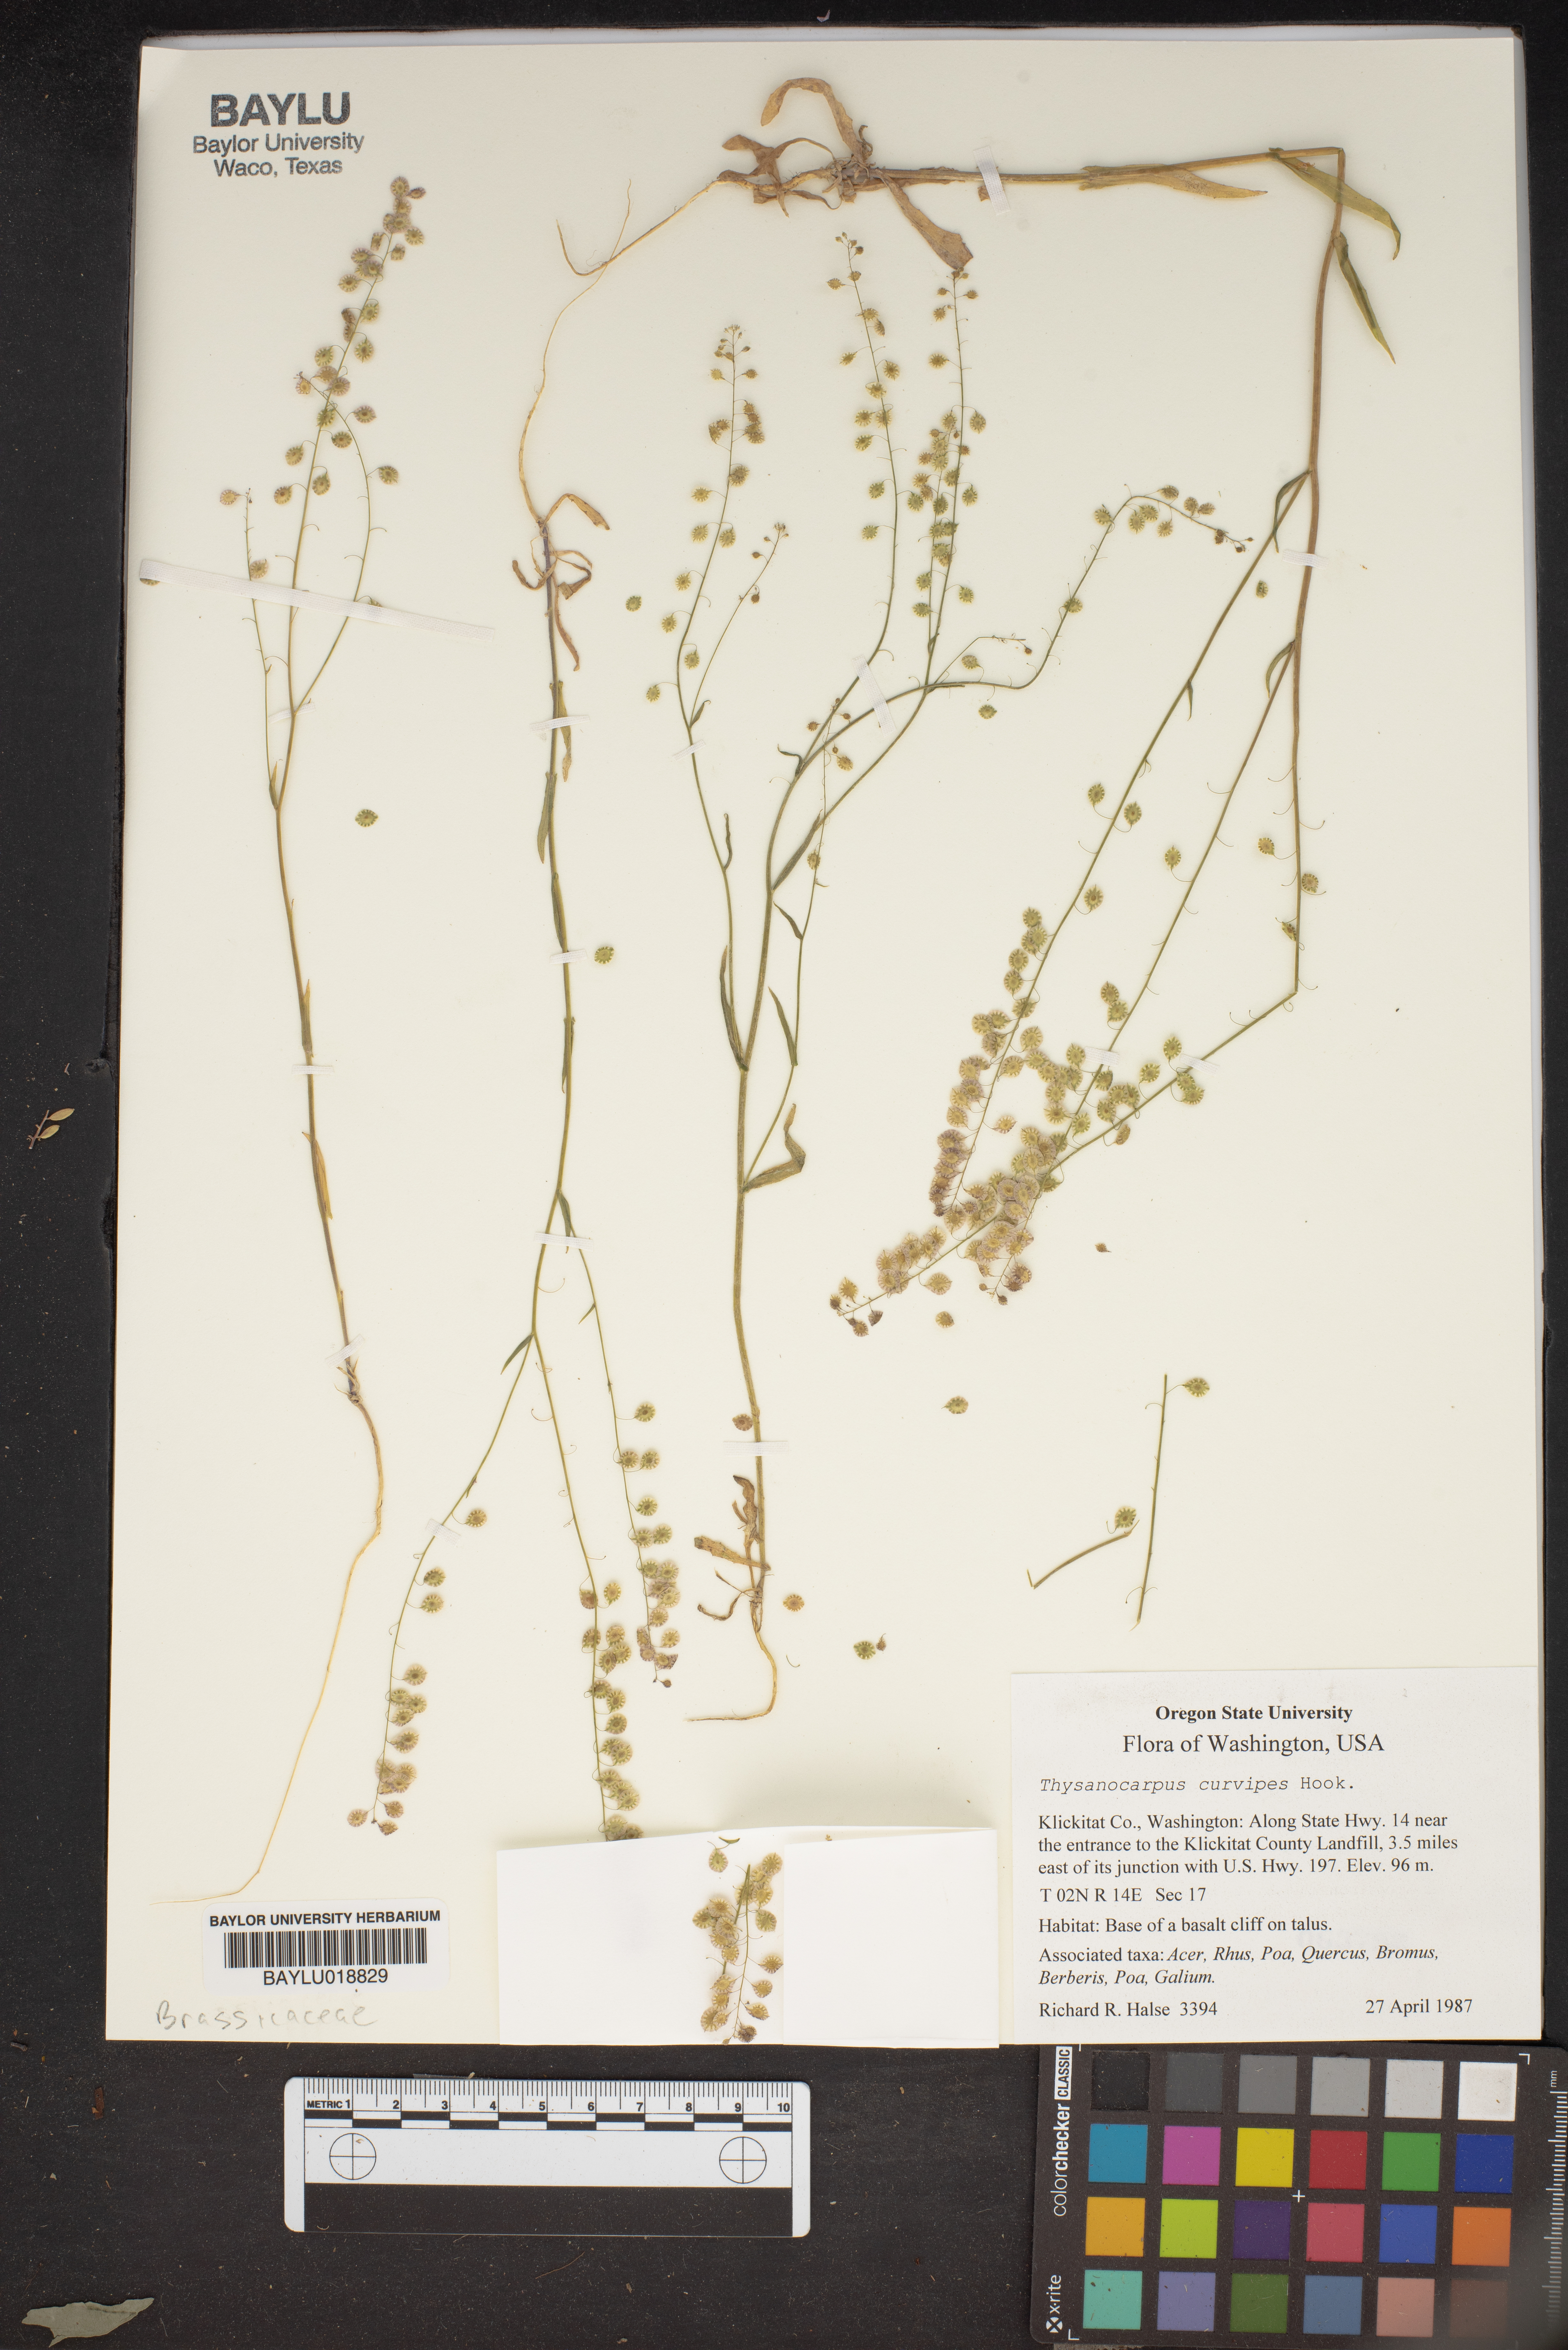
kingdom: Plantae
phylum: Tracheophyta
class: Magnoliopsida
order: Brassicales
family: Brassicaceae
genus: Thysanocarpus
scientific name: Thysanocarpus curvipes
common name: Sand fringepod
